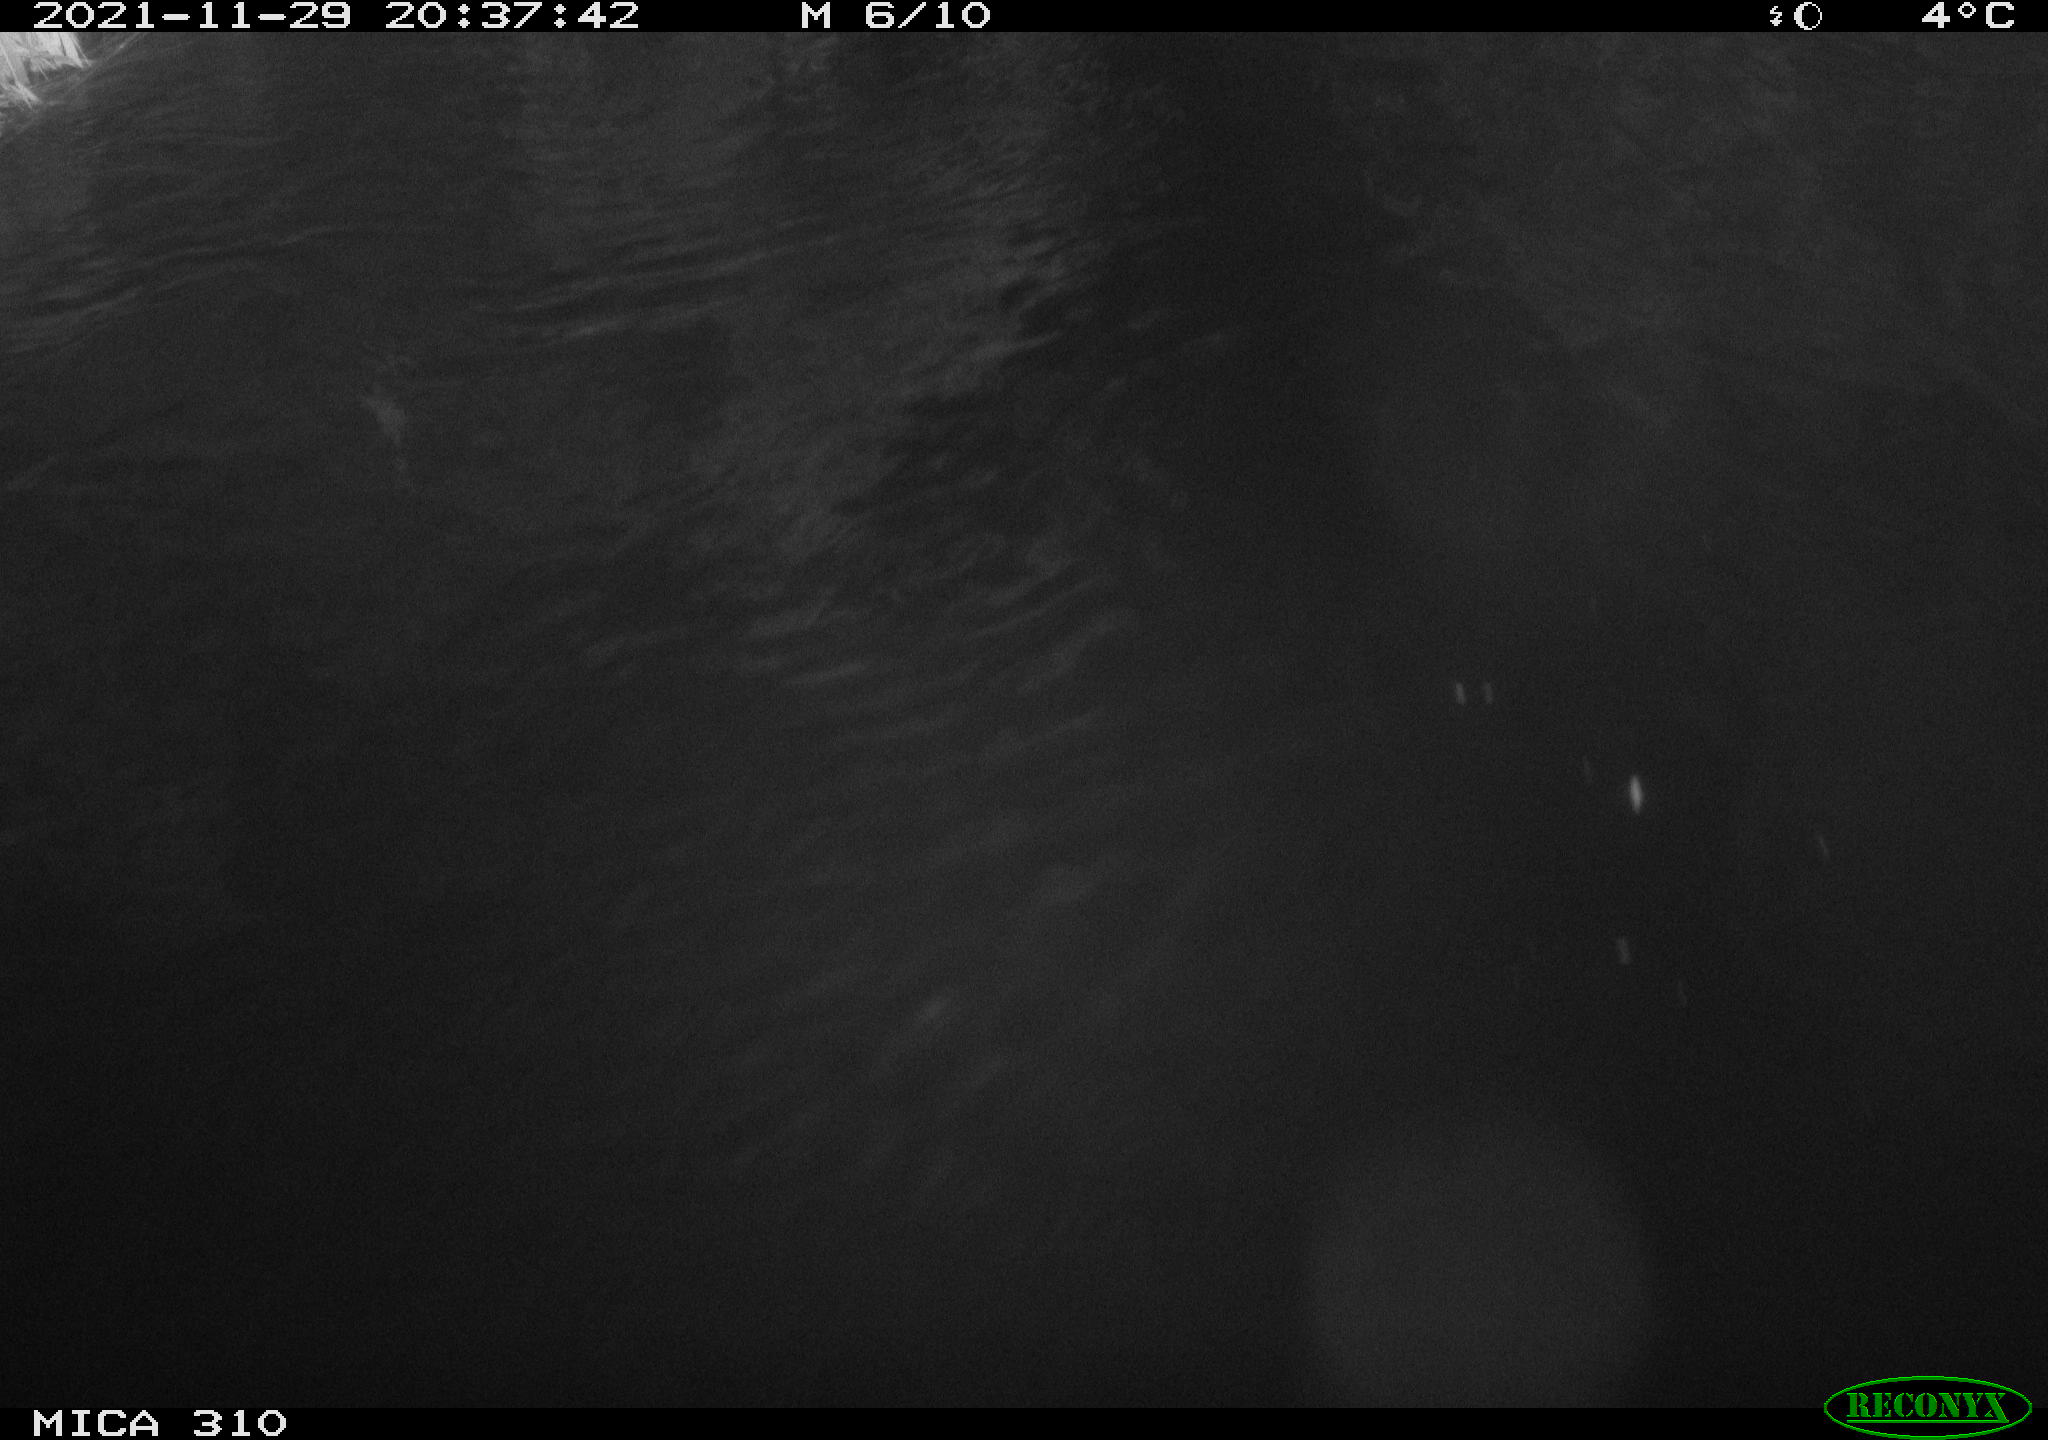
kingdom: Animalia
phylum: Chordata
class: Mammalia
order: Rodentia
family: Muridae
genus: Rattus
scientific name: Rattus norvegicus
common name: Brown rat
